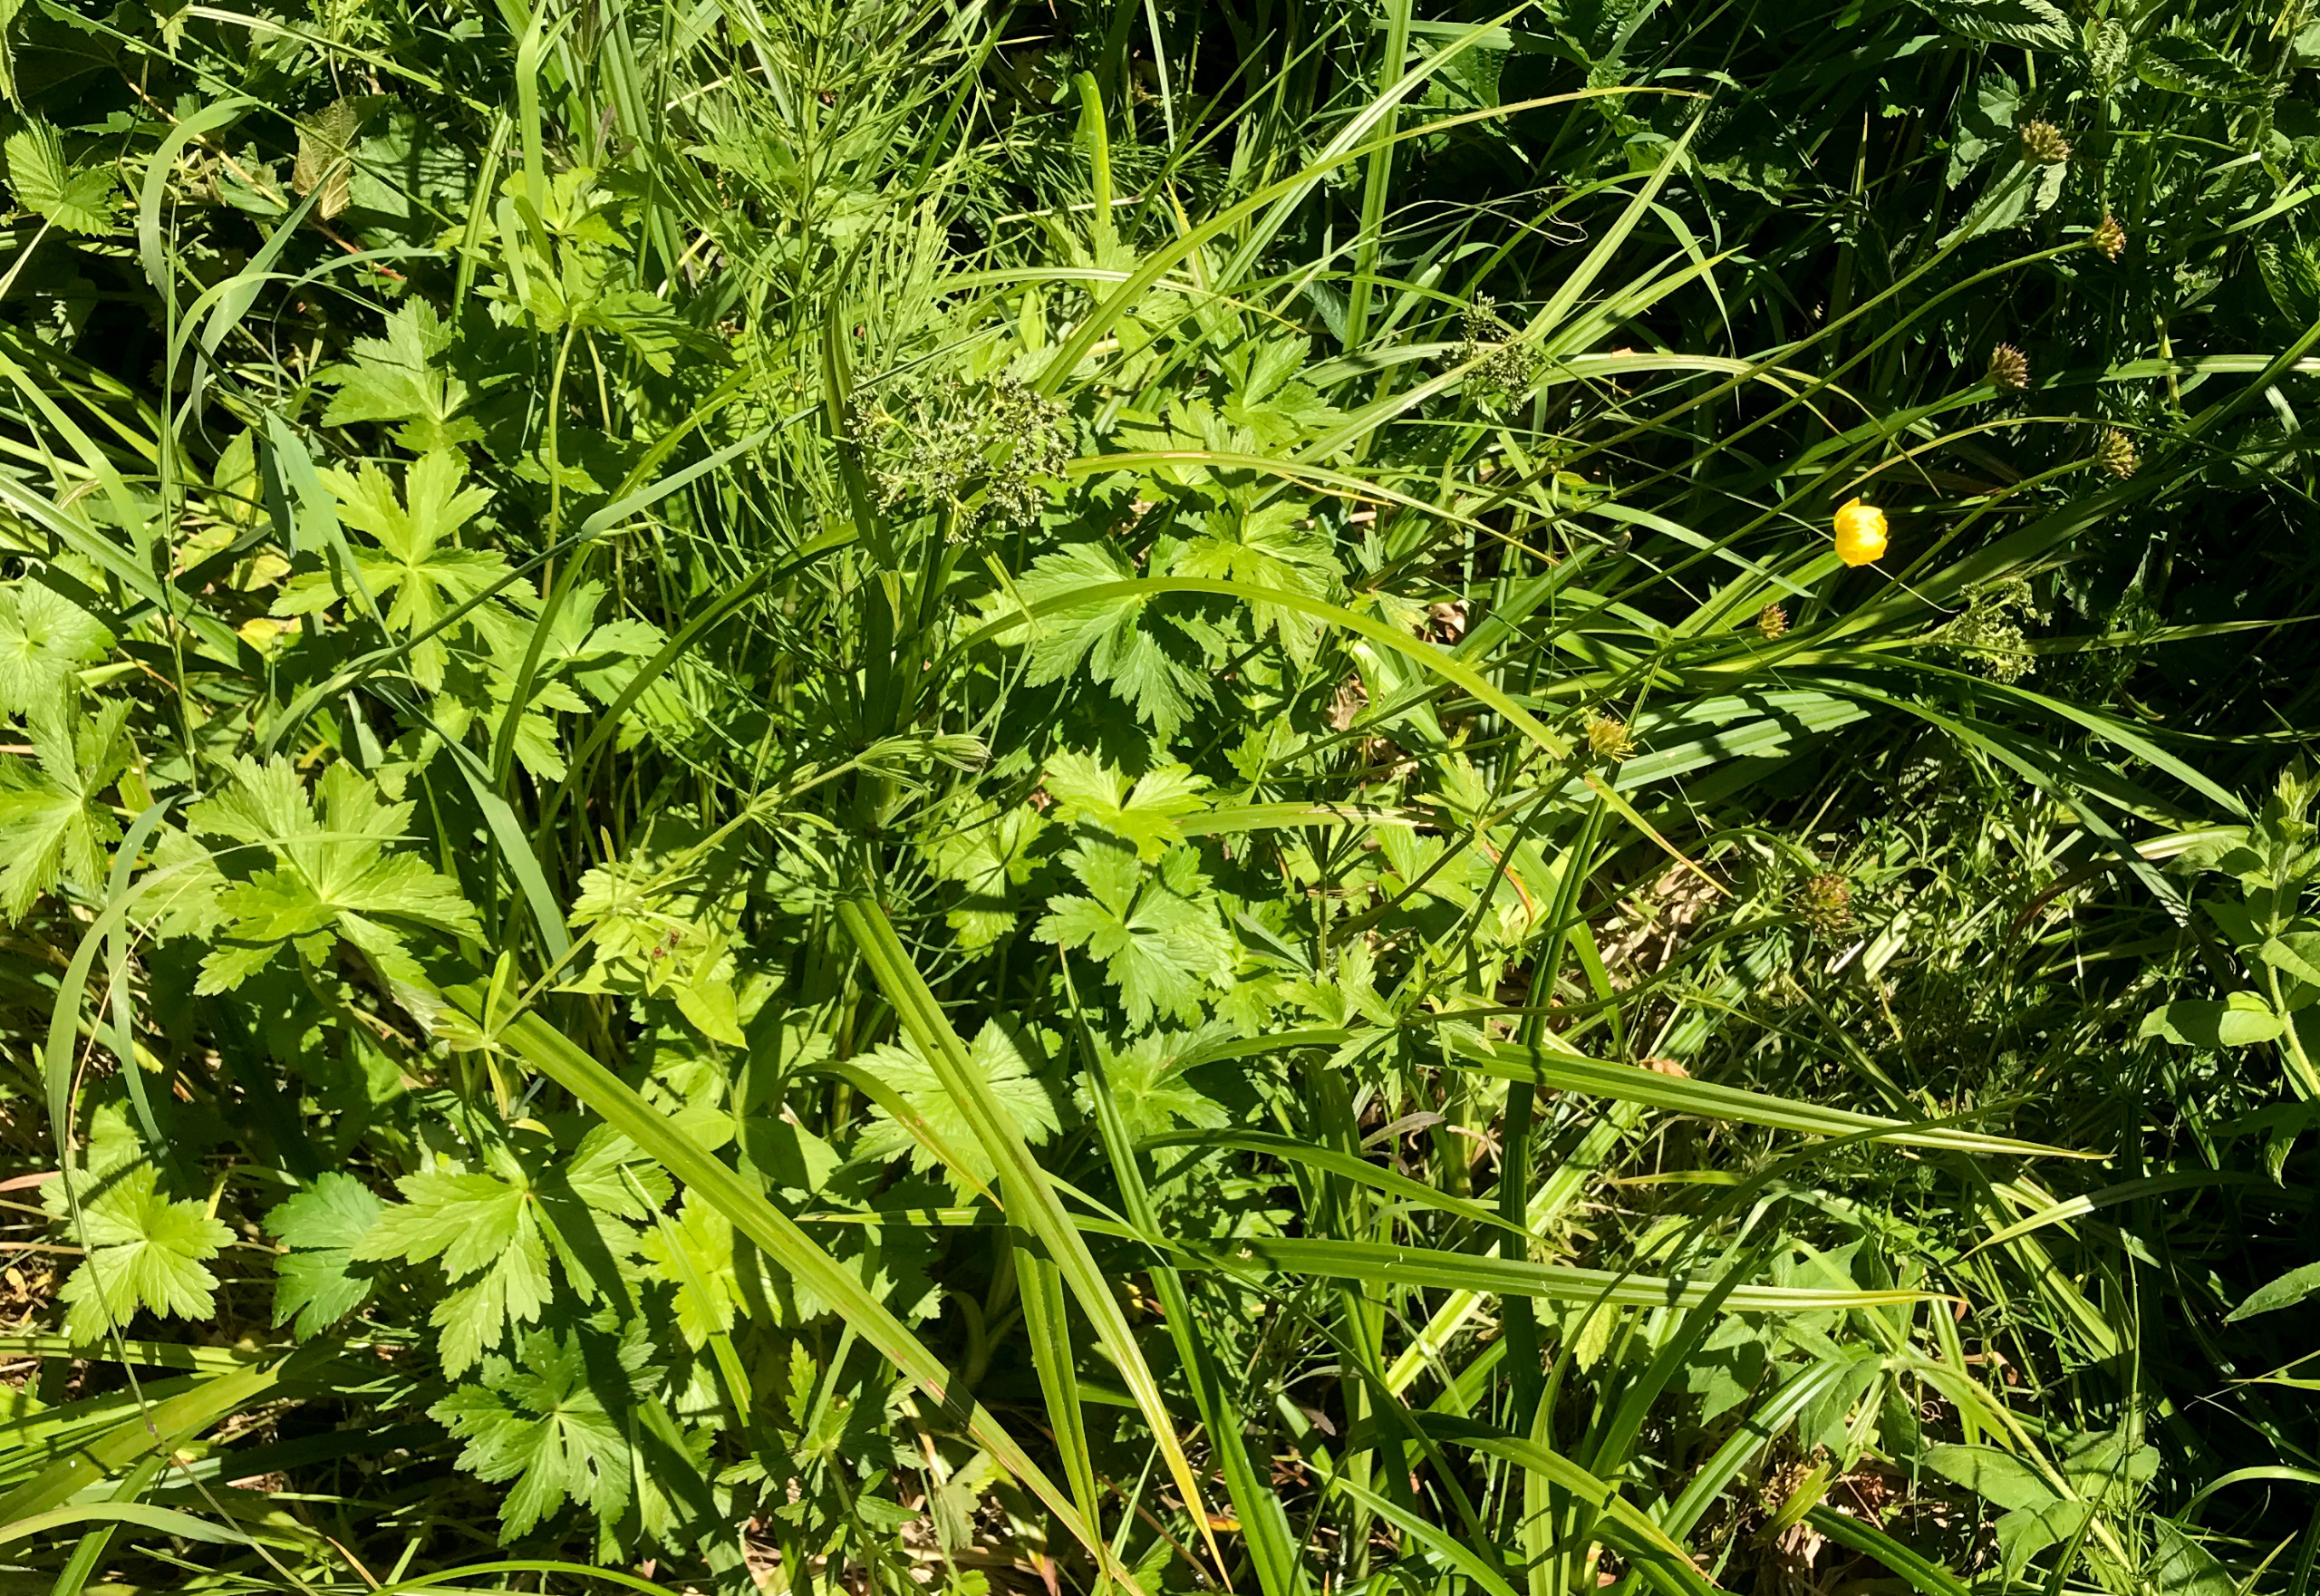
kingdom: Plantae
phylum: Tracheophyta
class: Magnoliopsida
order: Ranunculales
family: Ranunculaceae
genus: Trollius
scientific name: Trollius europaeus
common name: Engblomme
